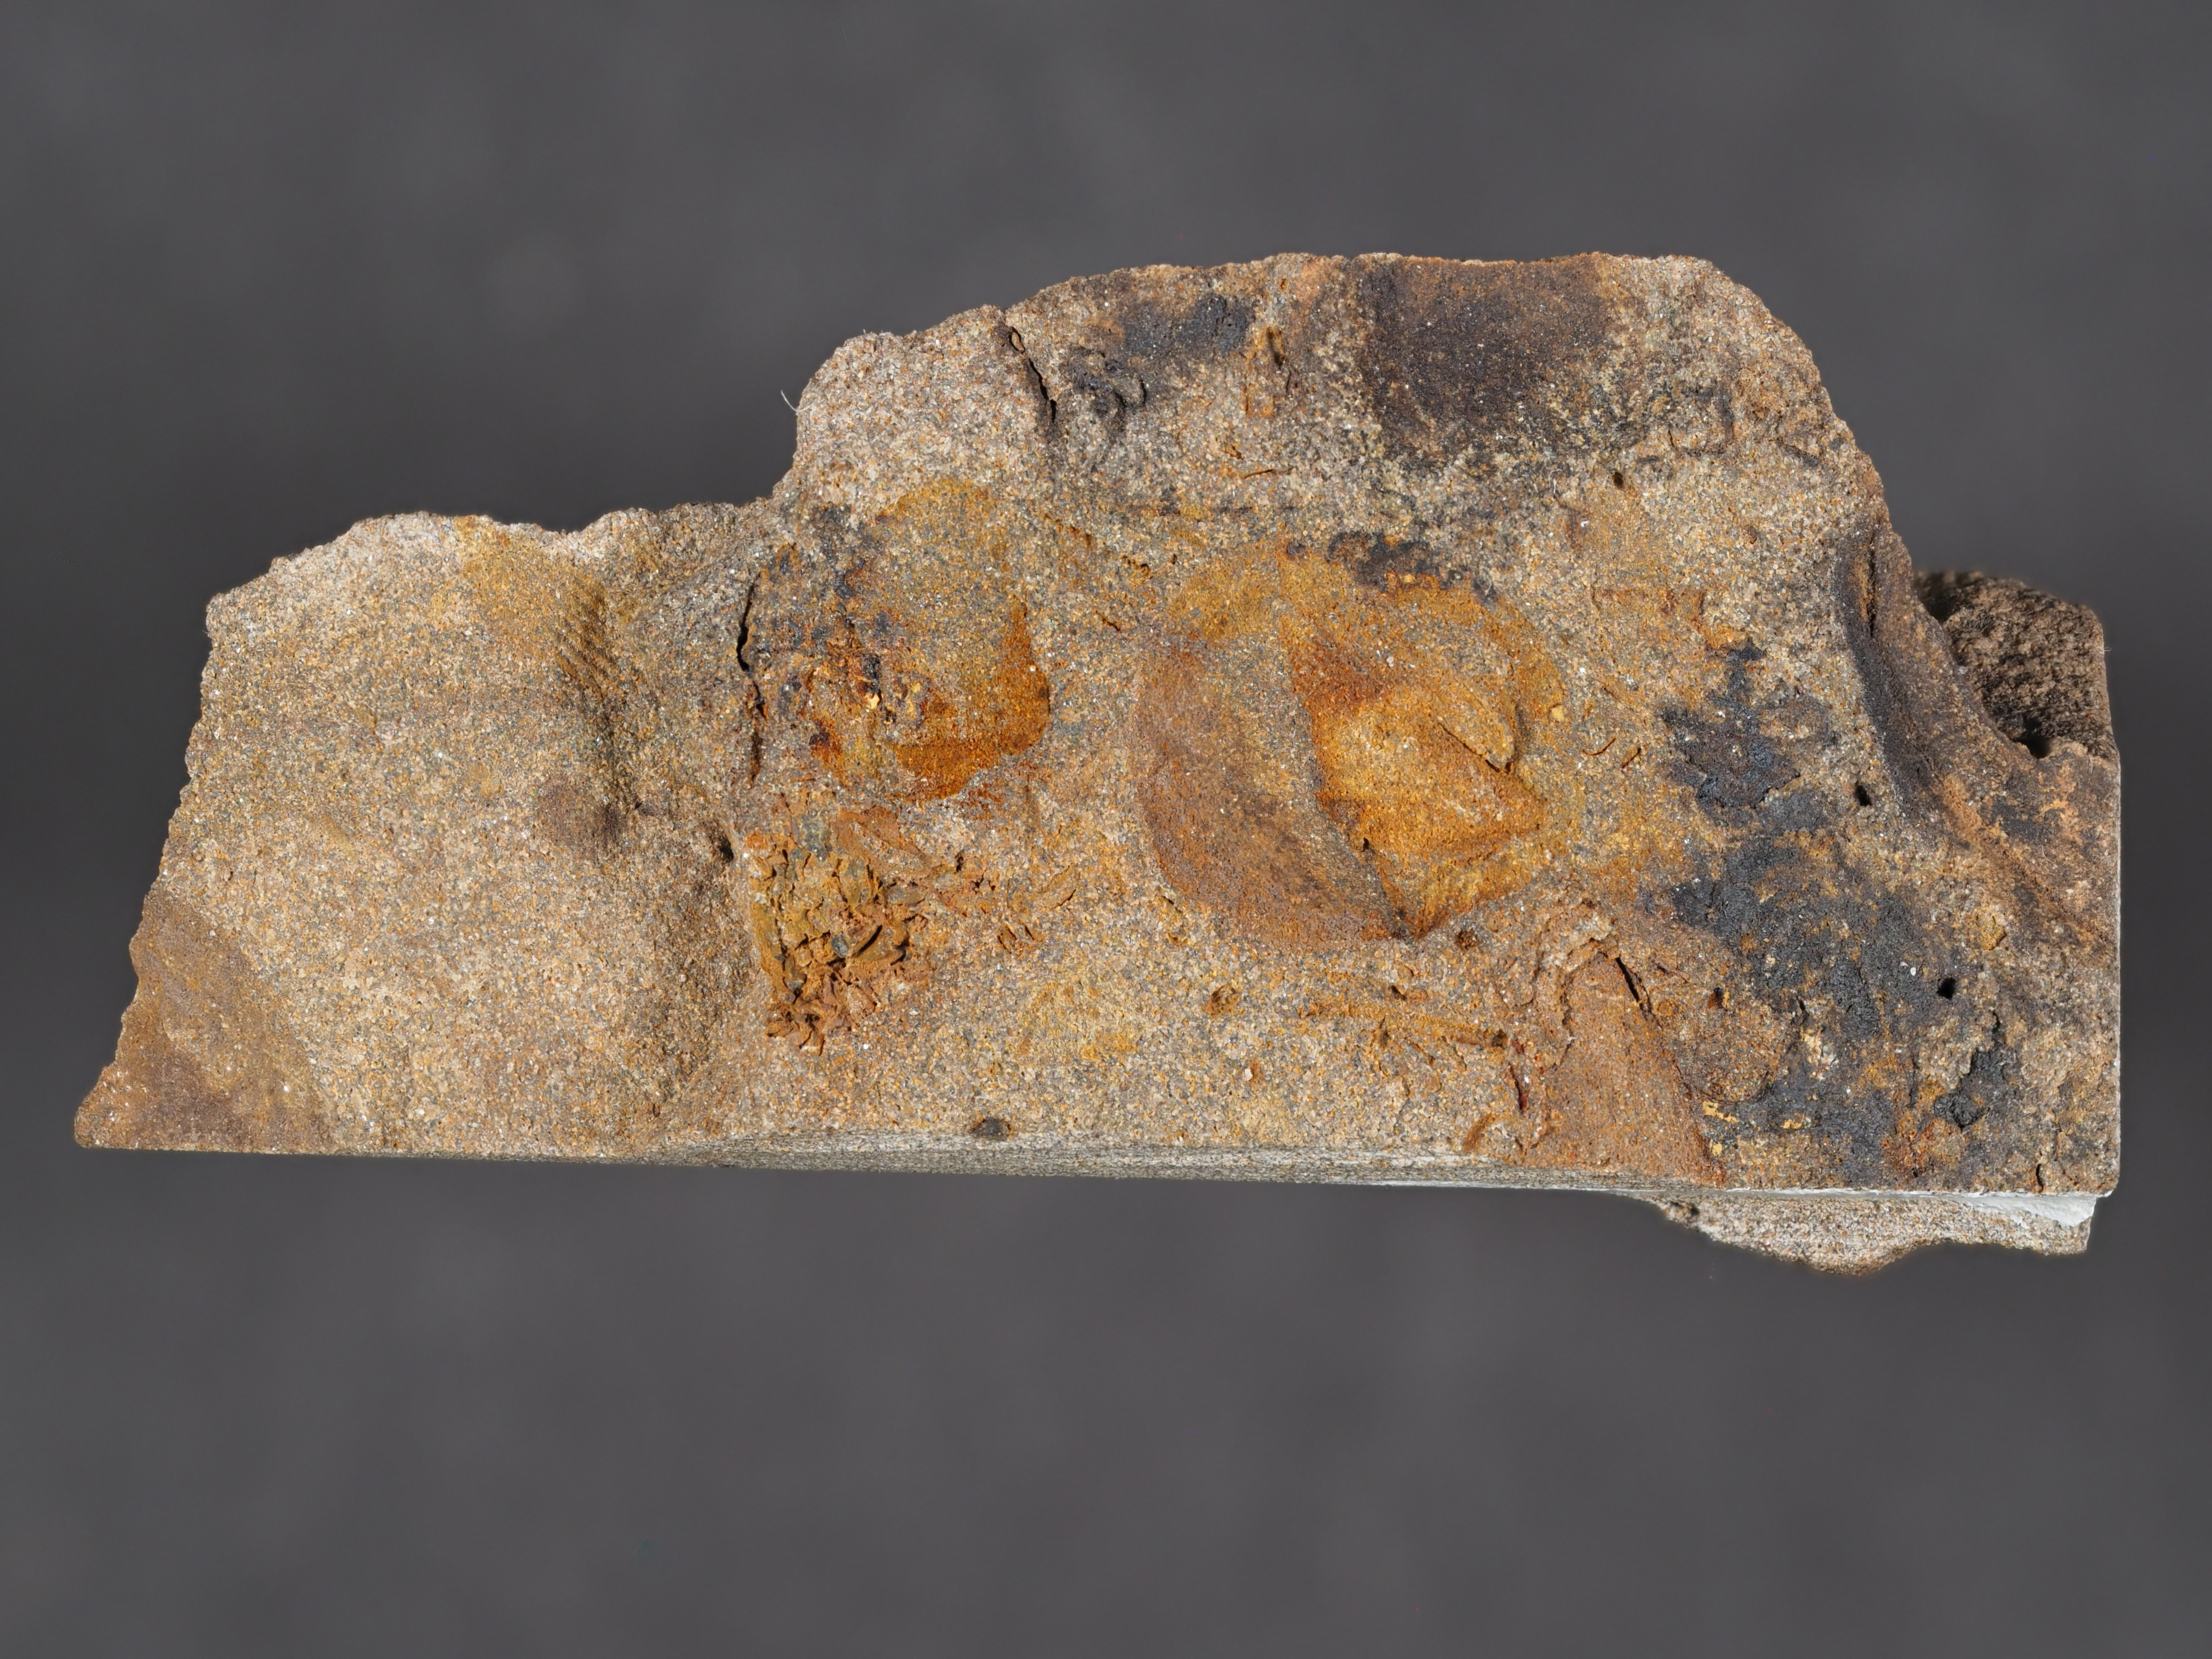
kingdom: Animalia
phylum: Arthropoda
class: Ostracoda
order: Palaeocopida
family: Kloedeniidae
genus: Carinokloedenia
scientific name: Carinokloedenia
